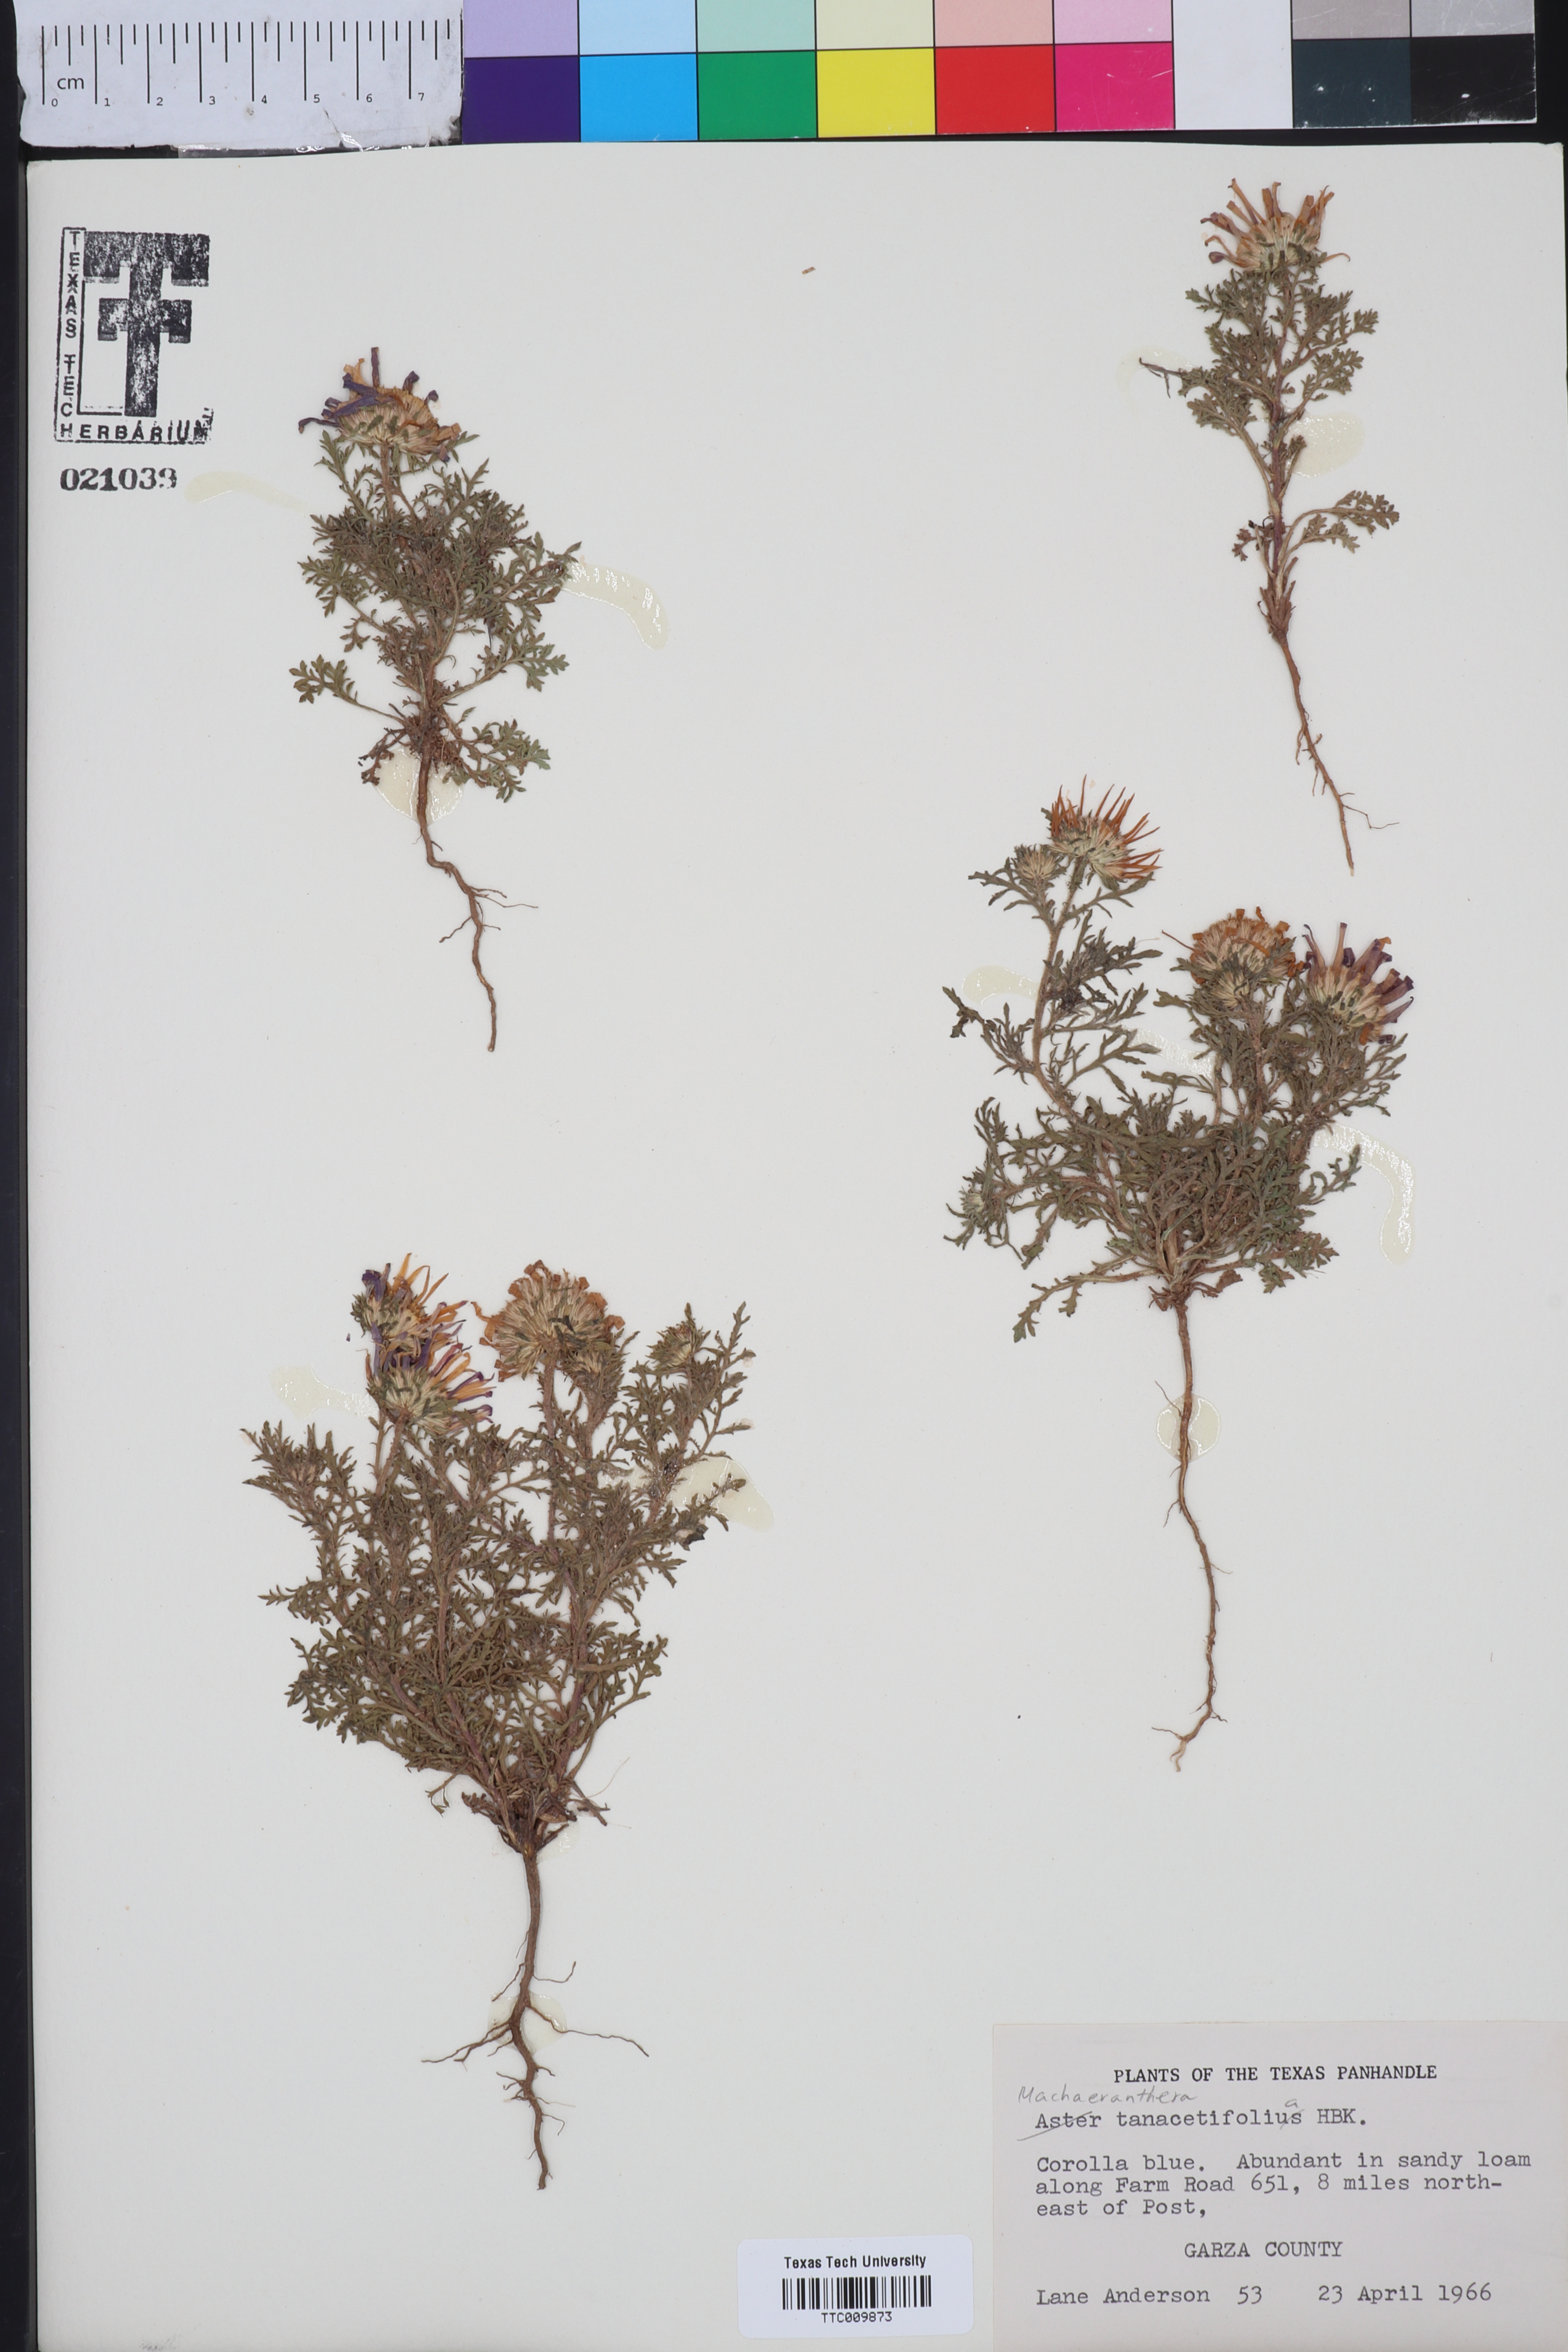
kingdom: Plantae
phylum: Tracheophyta
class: Magnoliopsida
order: Asterales
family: Asteraceae
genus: Machaeranthera
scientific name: Machaeranthera tanacetifolia
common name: Tansy-aster
